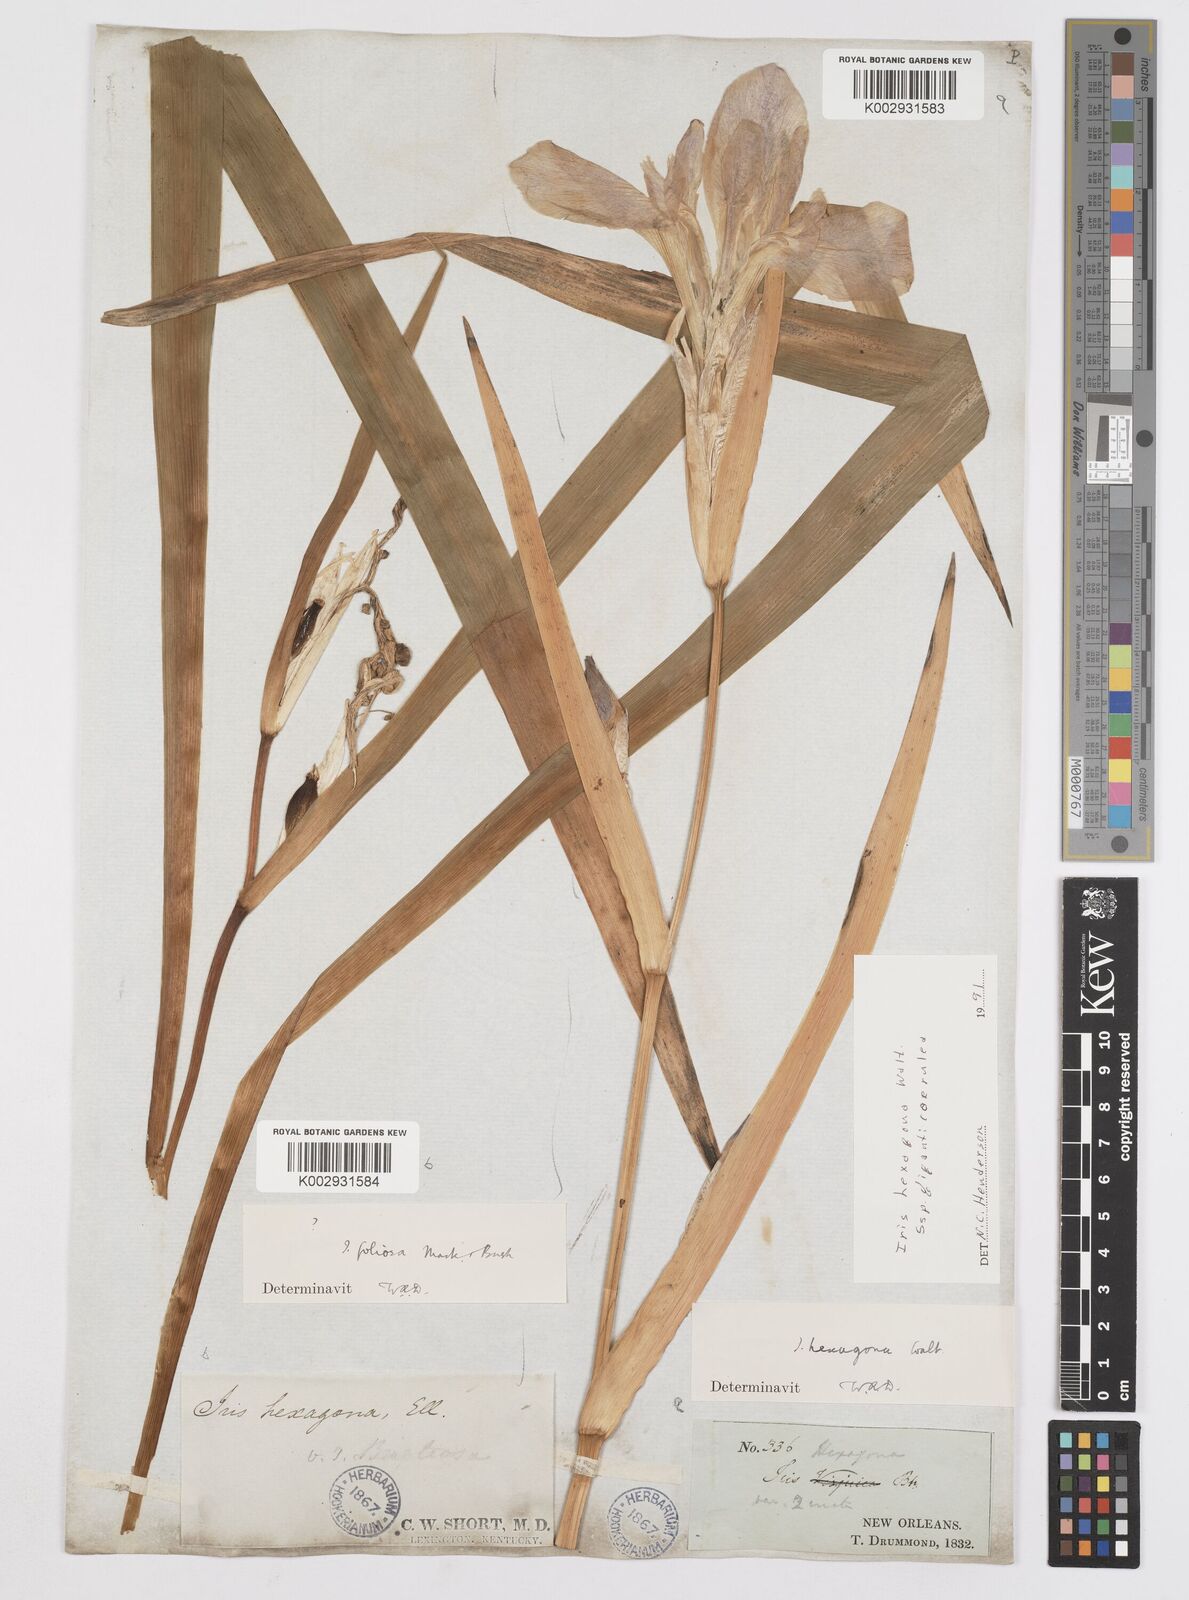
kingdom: Plantae
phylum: Tracheophyta
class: Liliopsida
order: Asparagales
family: Iridaceae
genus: Iris
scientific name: Iris brevicaulis
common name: Zigzag iris
